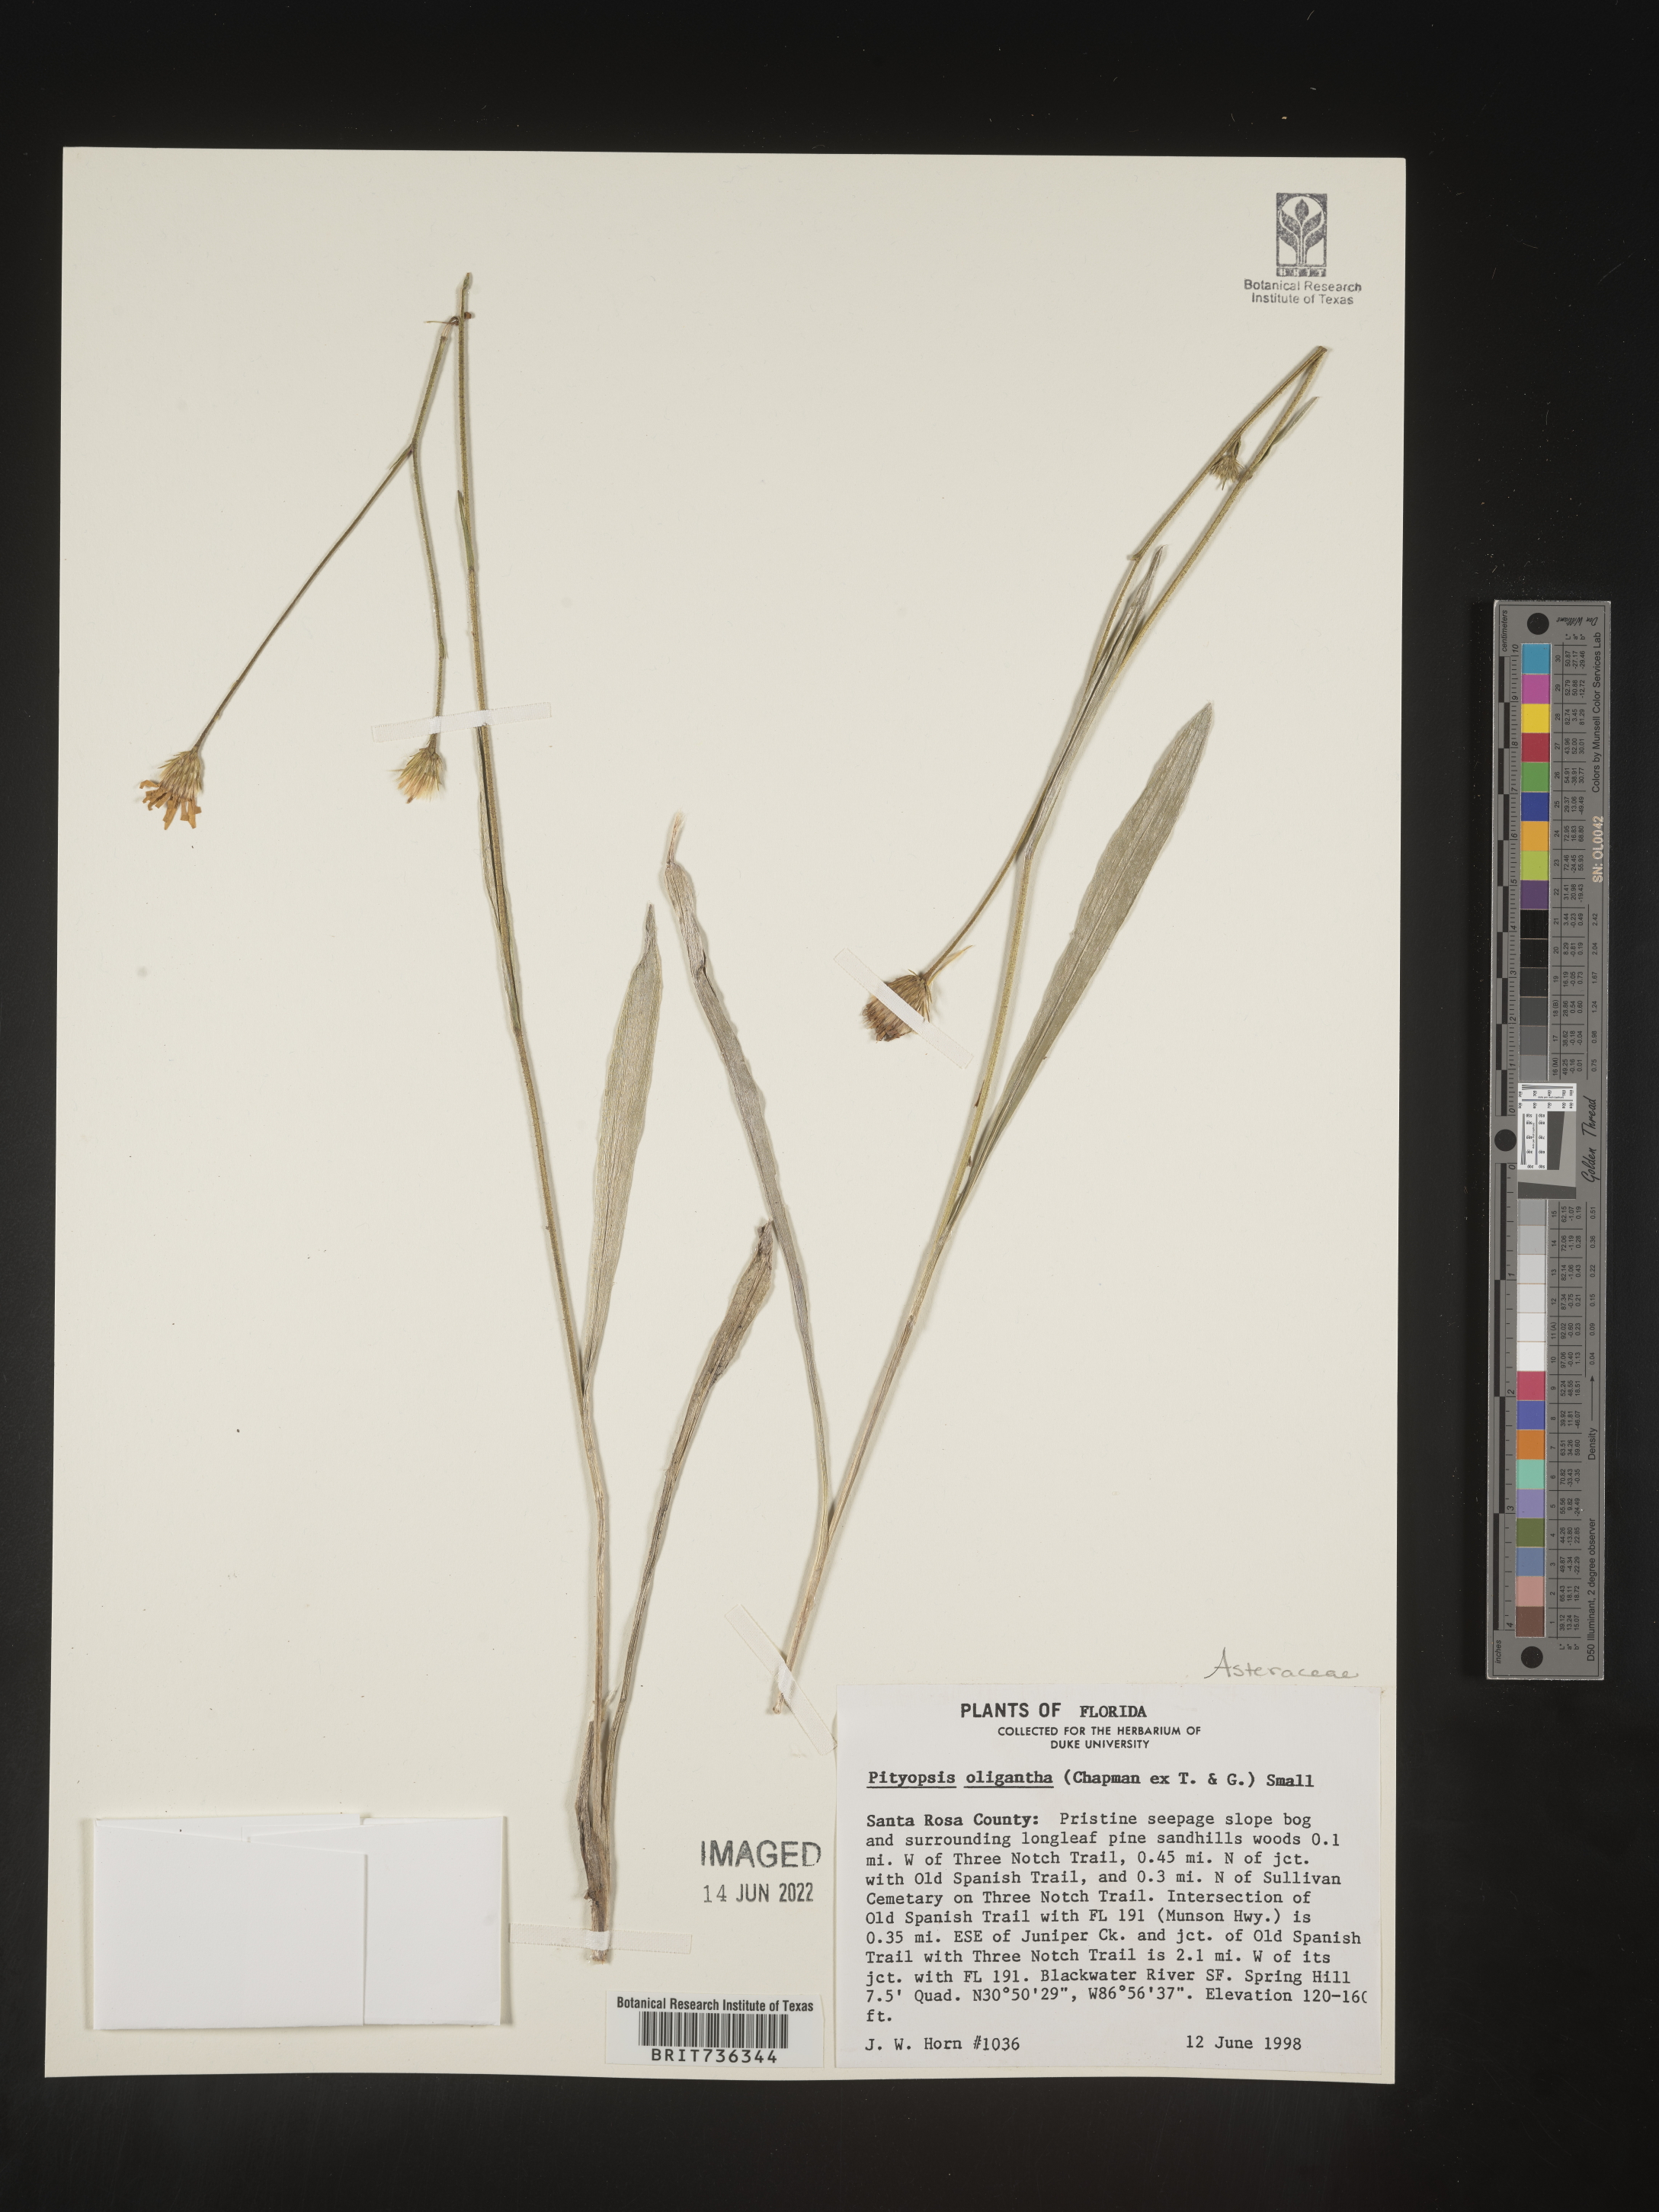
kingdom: Plantae
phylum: Tracheophyta
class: Magnoliopsida
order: Asterales
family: Asteraceae
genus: Pityopsis
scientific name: Pityopsis oligantha
